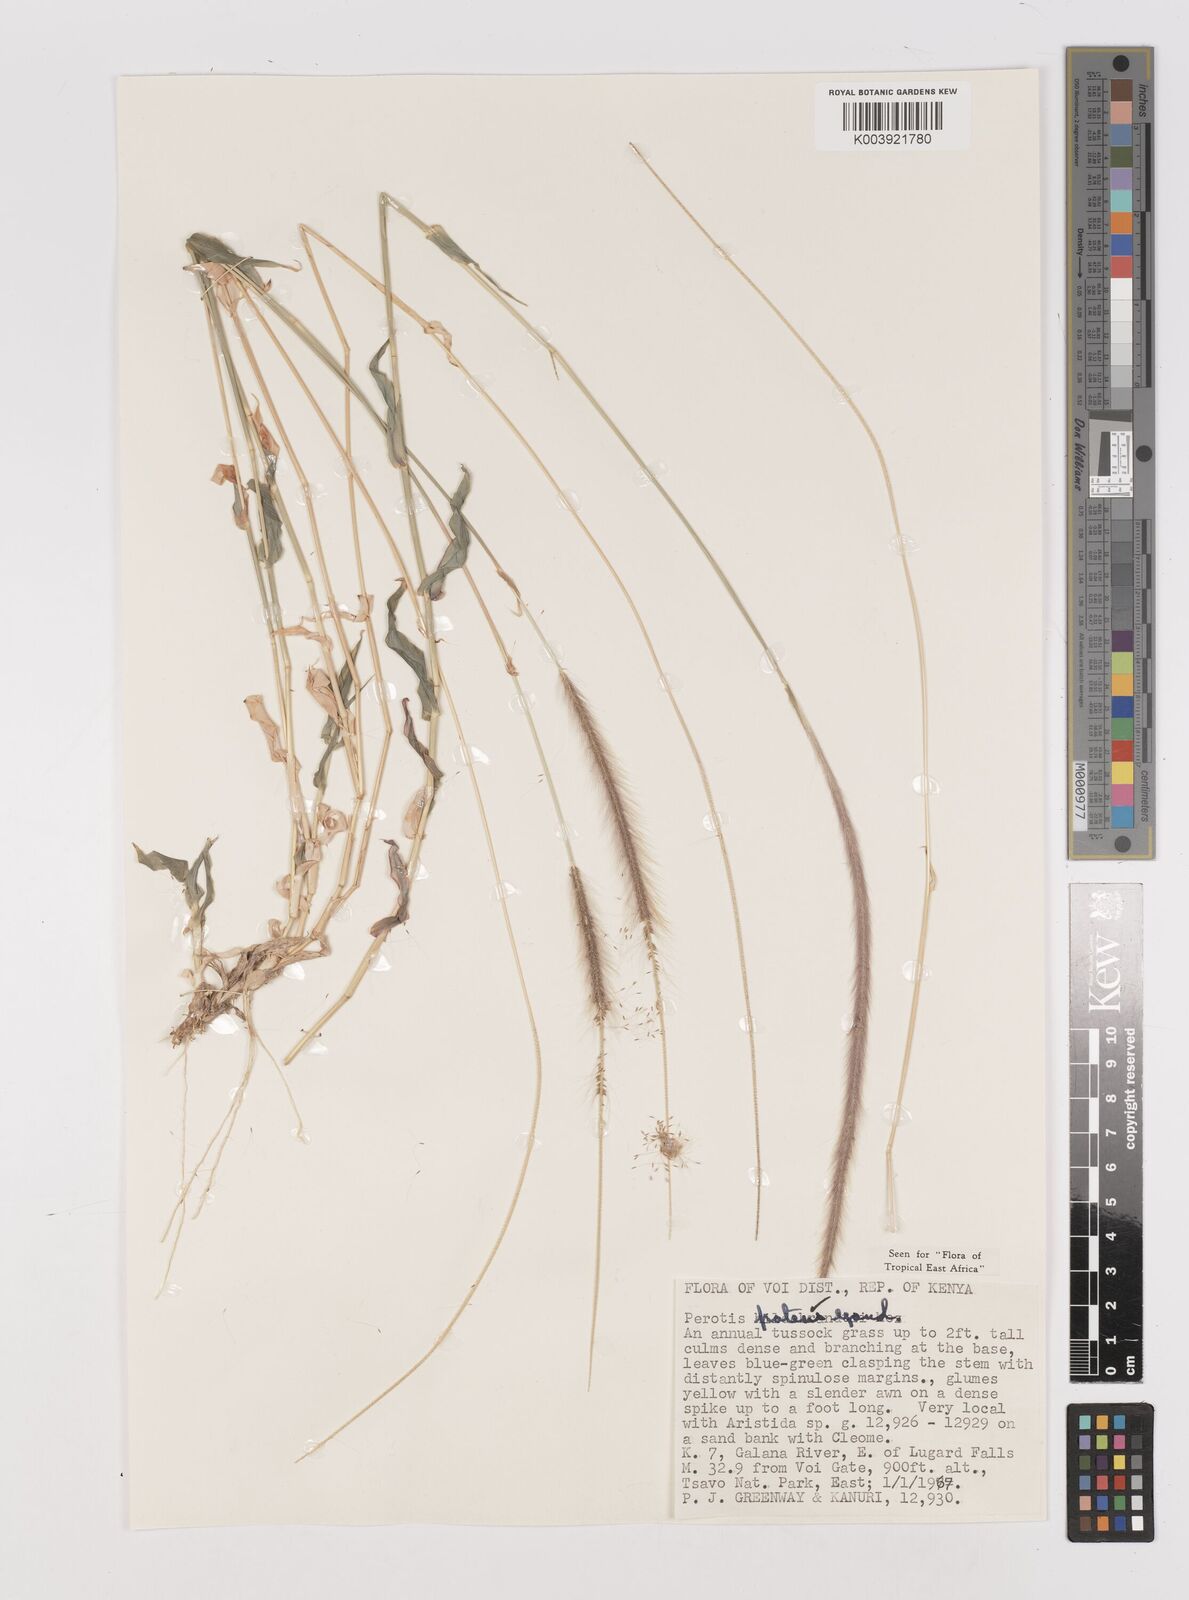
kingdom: Plantae
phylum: Tracheophyta
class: Liliopsida
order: Poales
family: Poaceae
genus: Perotis
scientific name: Perotis patens
